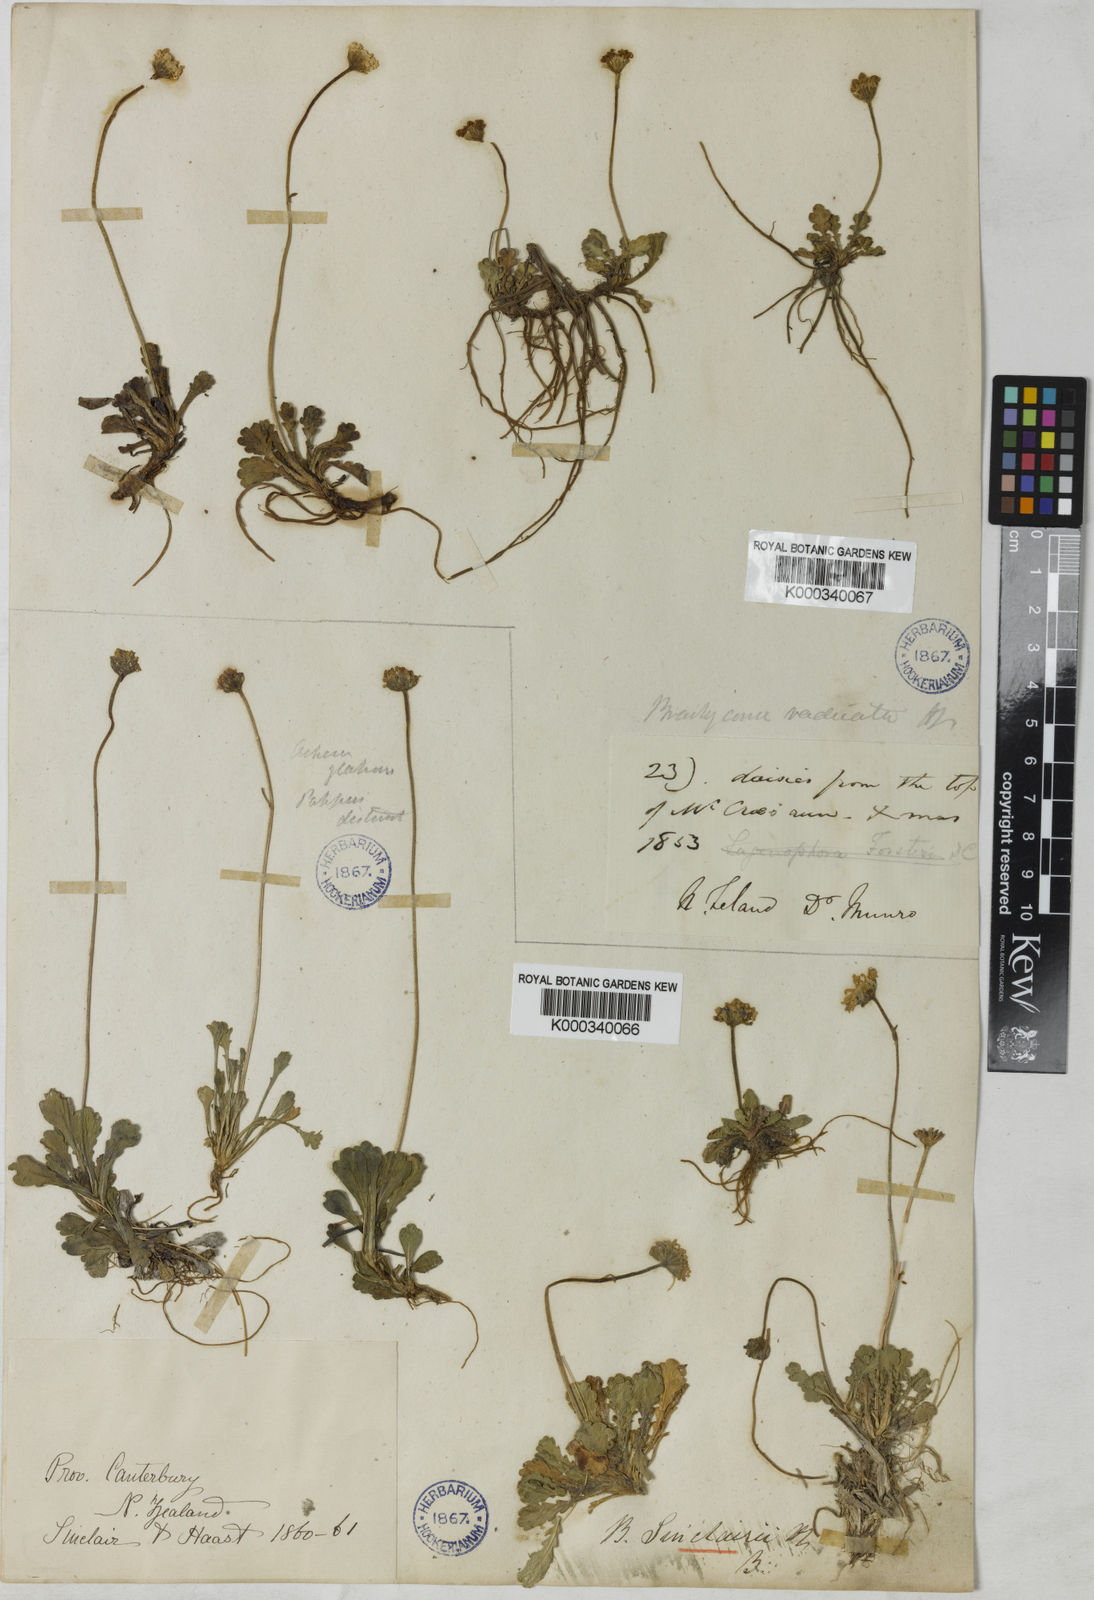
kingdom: Plantae
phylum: Tracheophyta
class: Magnoliopsida
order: Asterales
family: Asteraceae
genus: Brachyscome
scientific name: Brachyscome sinclairii
